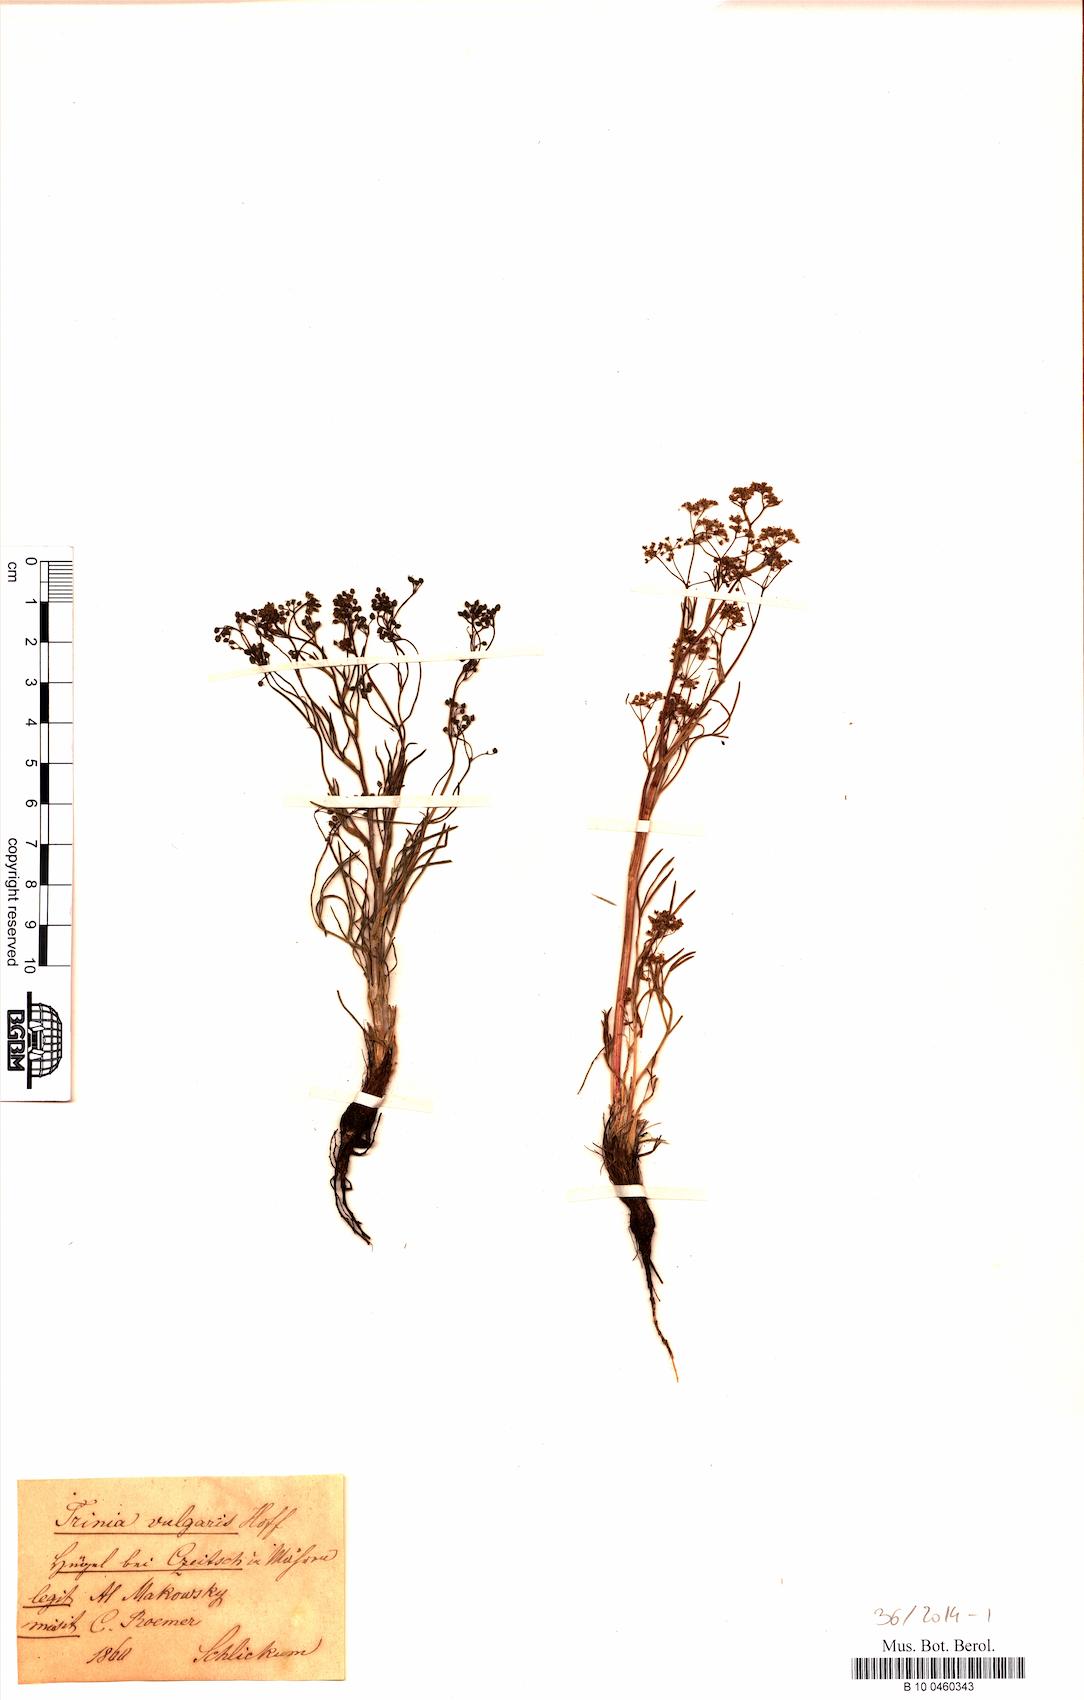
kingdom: Plantae
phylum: Tracheophyta
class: Magnoliopsida
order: Apiales
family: Apiaceae
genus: Trinia
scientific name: Trinia glauca
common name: Honewort
